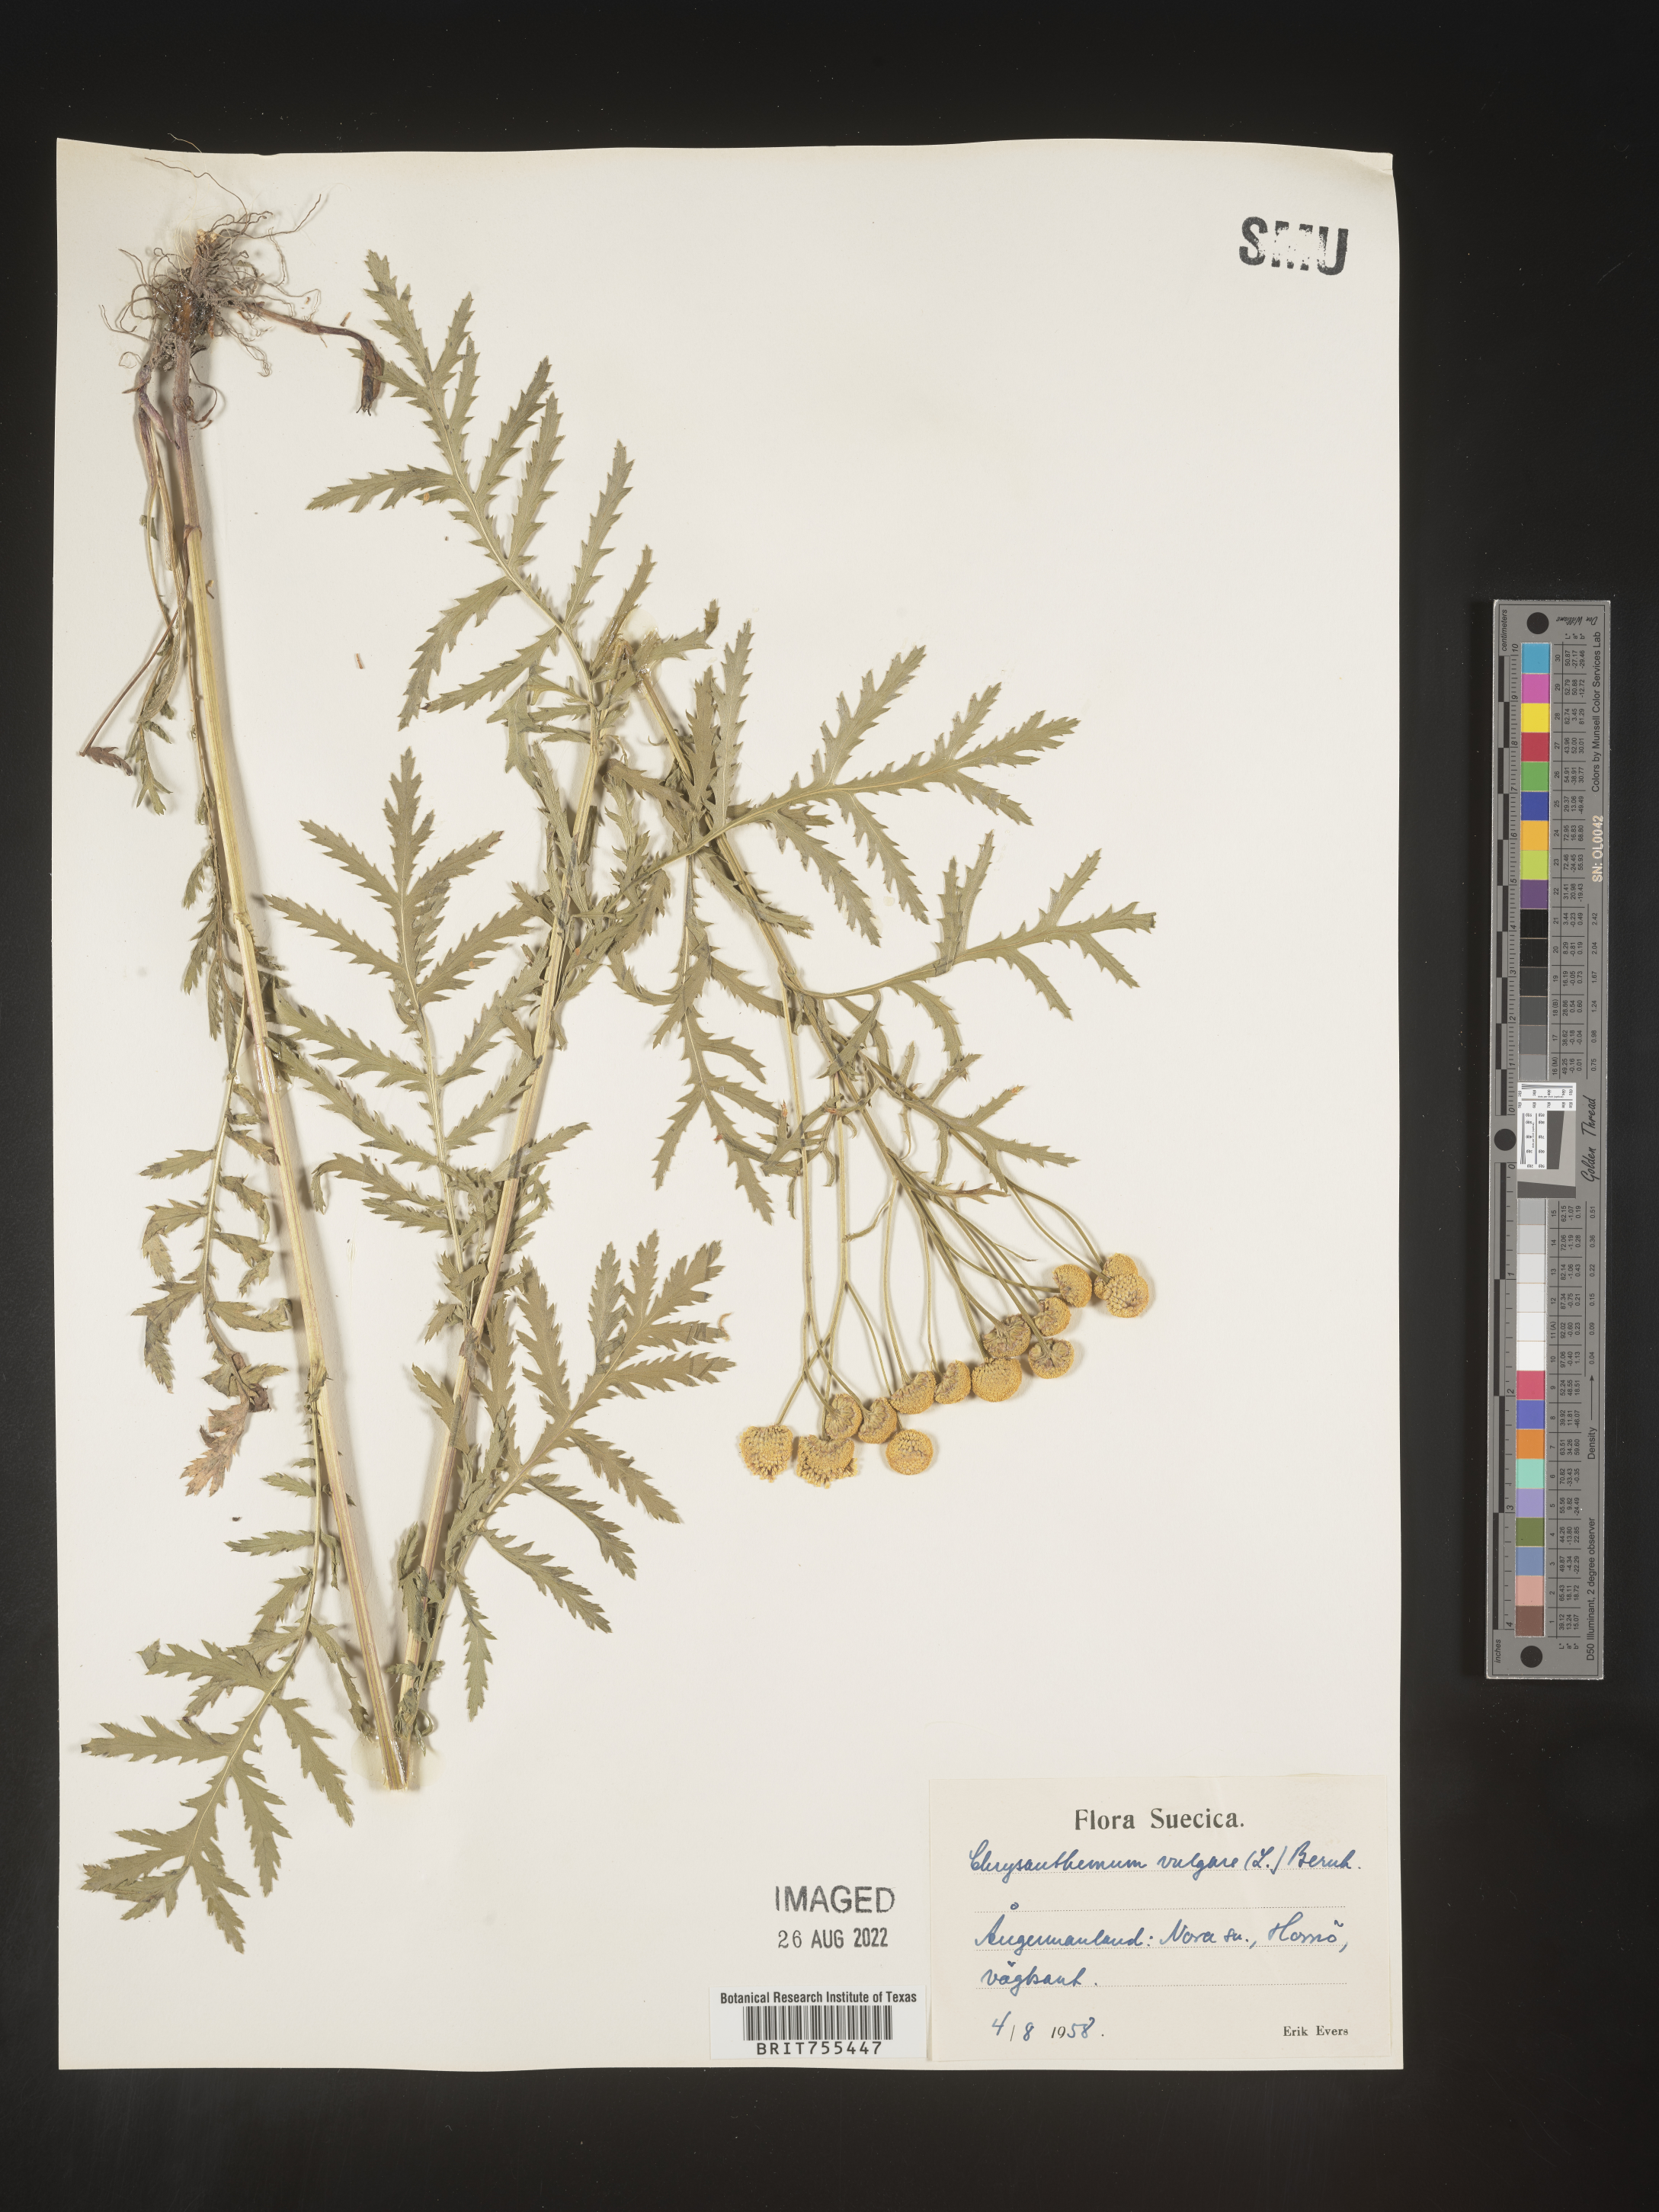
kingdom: Plantae
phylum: Tracheophyta
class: Magnoliopsida
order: Asterales
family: Asteraceae
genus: Tanacetum
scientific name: Tanacetum
